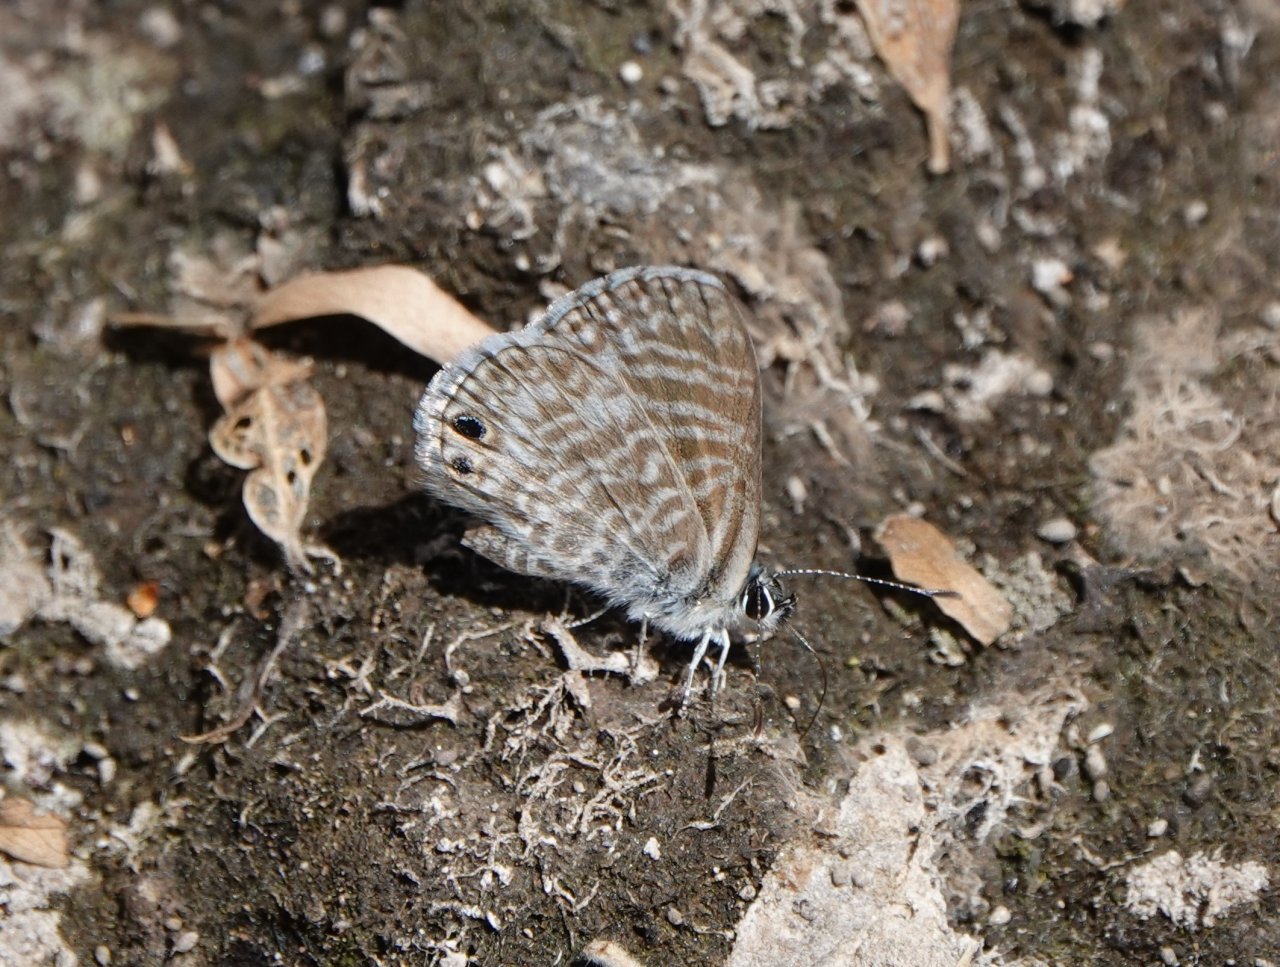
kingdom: Animalia
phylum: Arthropoda
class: Insecta
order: Lepidoptera
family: Lycaenidae
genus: Leptotes
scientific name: Leptotes marina
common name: Marine Blue
